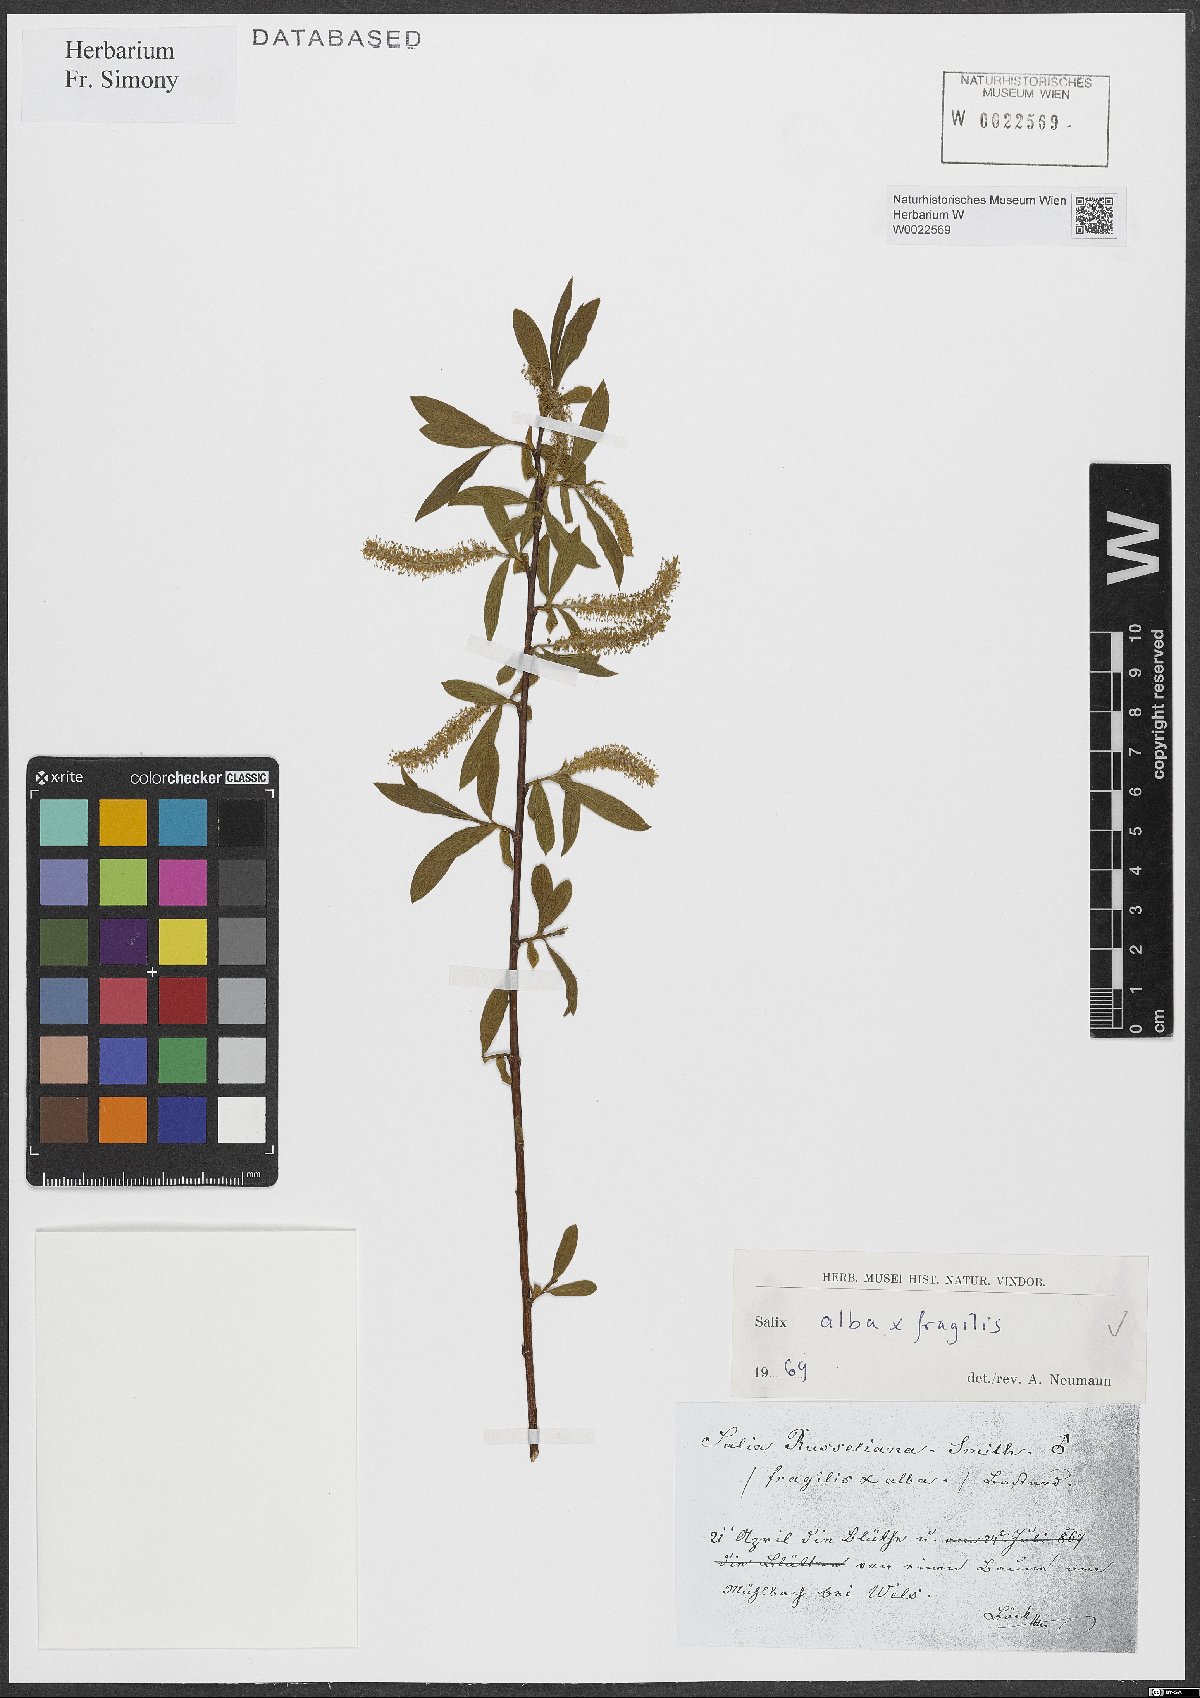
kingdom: Plantae
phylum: Tracheophyta
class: Magnoliopsida
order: Malpighiales
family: Salicaceae
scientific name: Salicaceae
